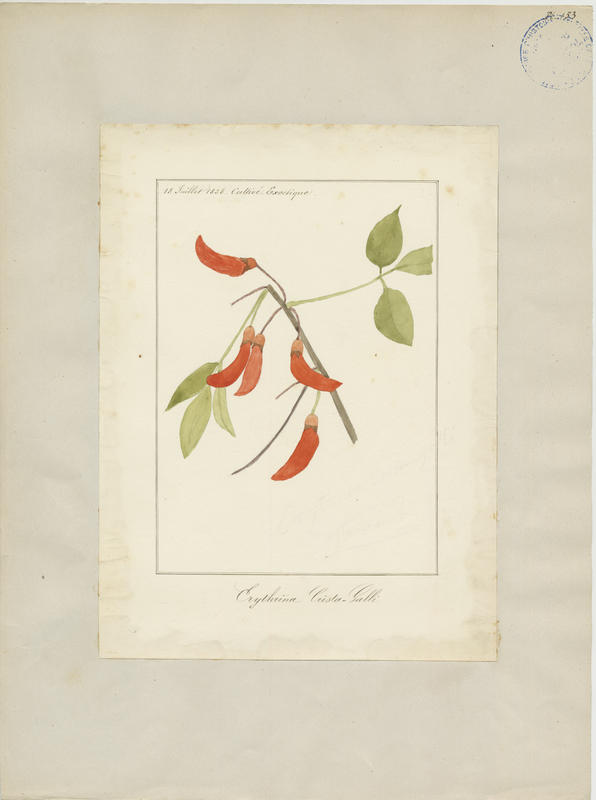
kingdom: Plantae
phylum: Tracheophyta
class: Magnoliopsida
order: Fabales
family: Fabaceae
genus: Erythrina
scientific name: Erythrina crista-galli
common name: Cockspur coral tree
